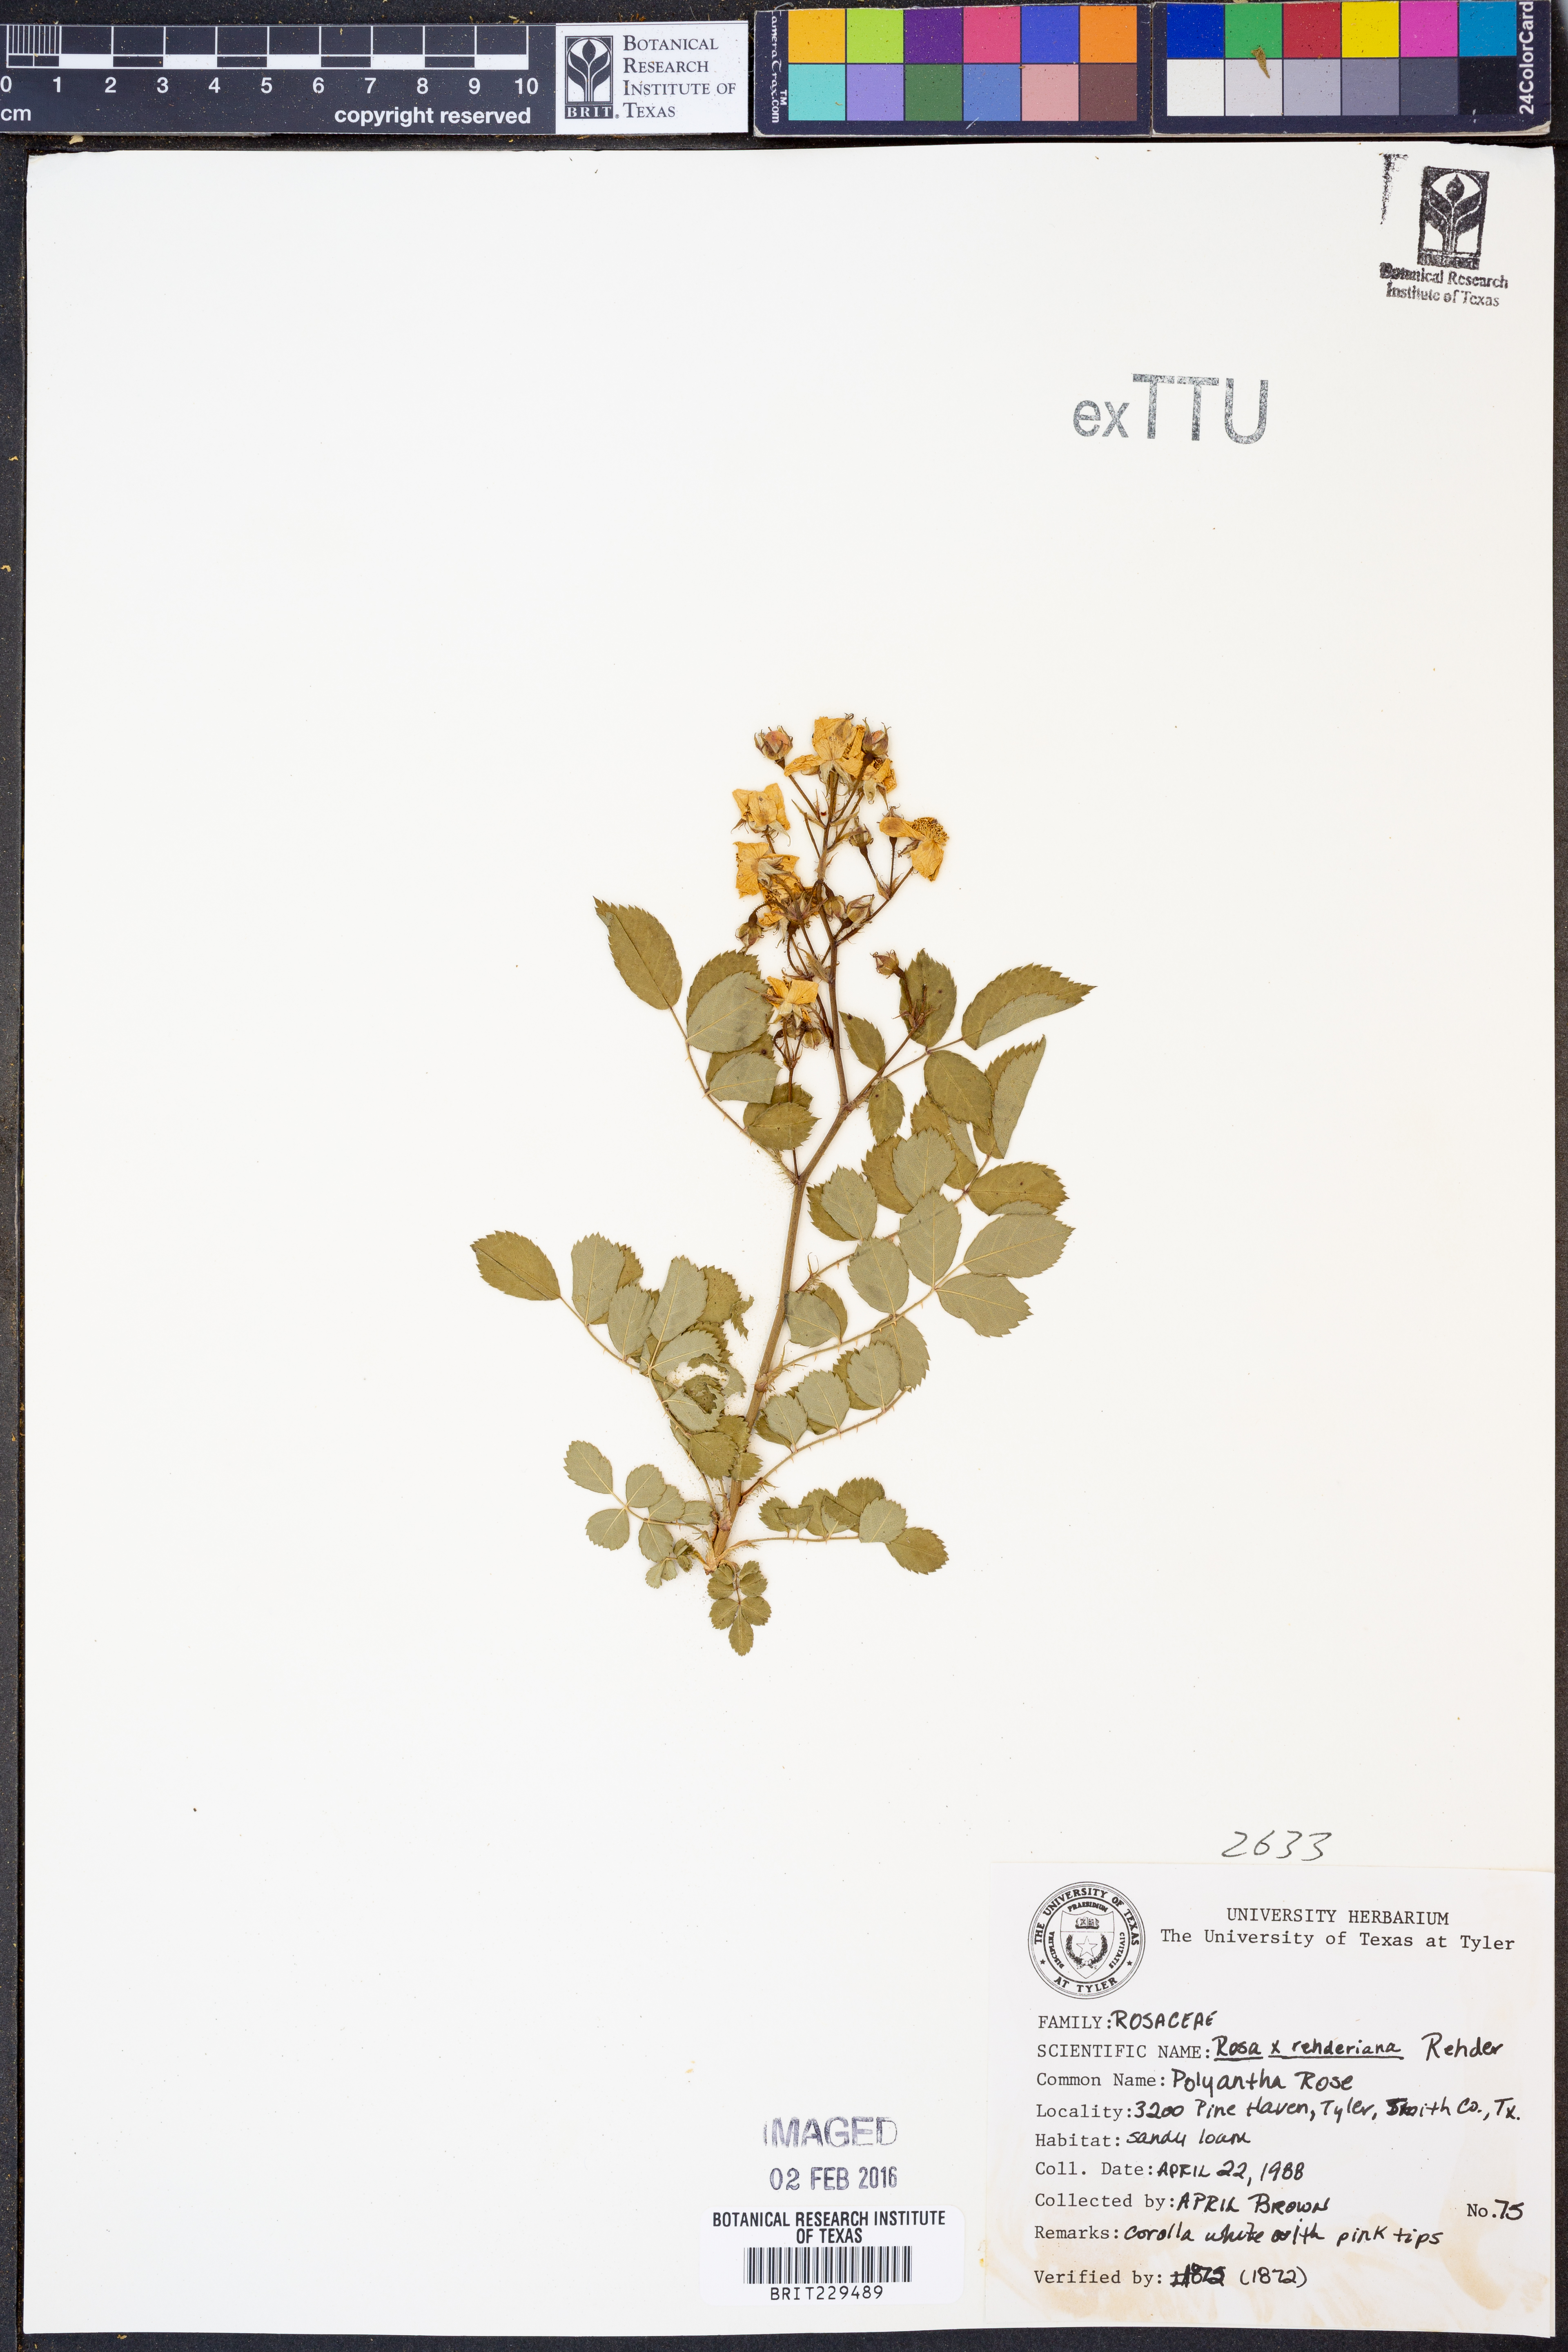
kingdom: Plantae
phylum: Tracheophyta
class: Magnoliopsida
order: Rosales
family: Rosaceae
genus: Rosa
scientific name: Rosa
